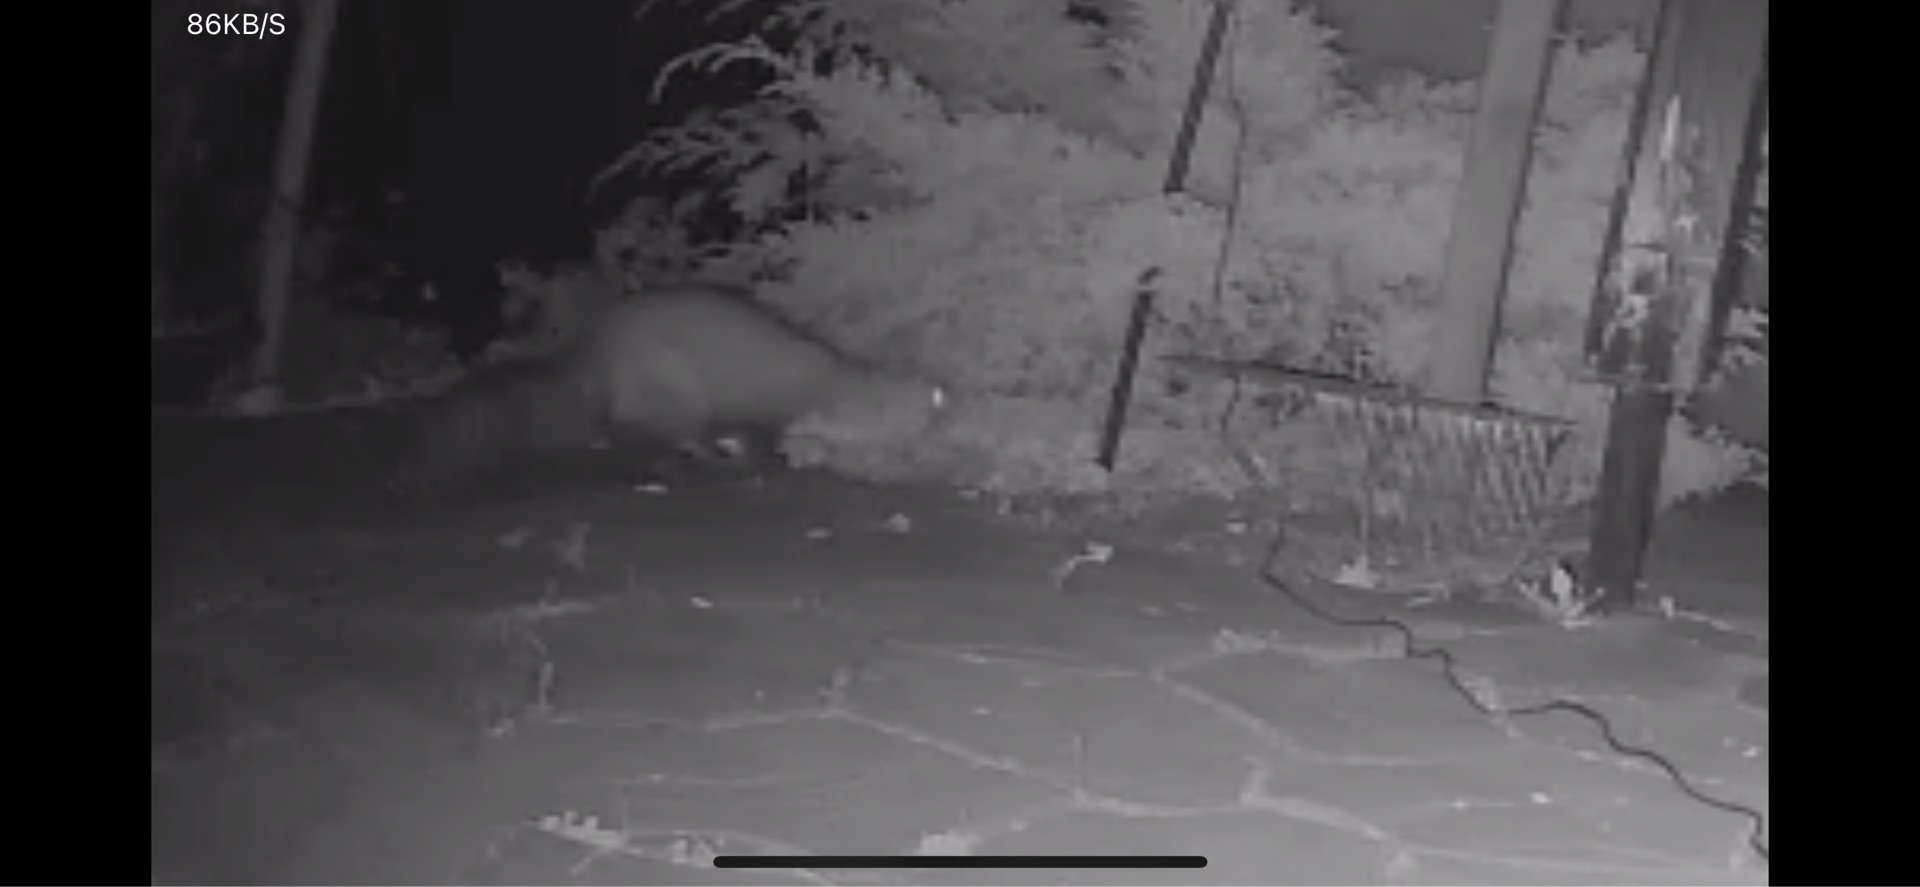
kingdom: Animalia
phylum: Chordata
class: Mammalia
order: Carnivora
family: Mustelidae
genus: Martes
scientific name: Martes foina
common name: Husmår
